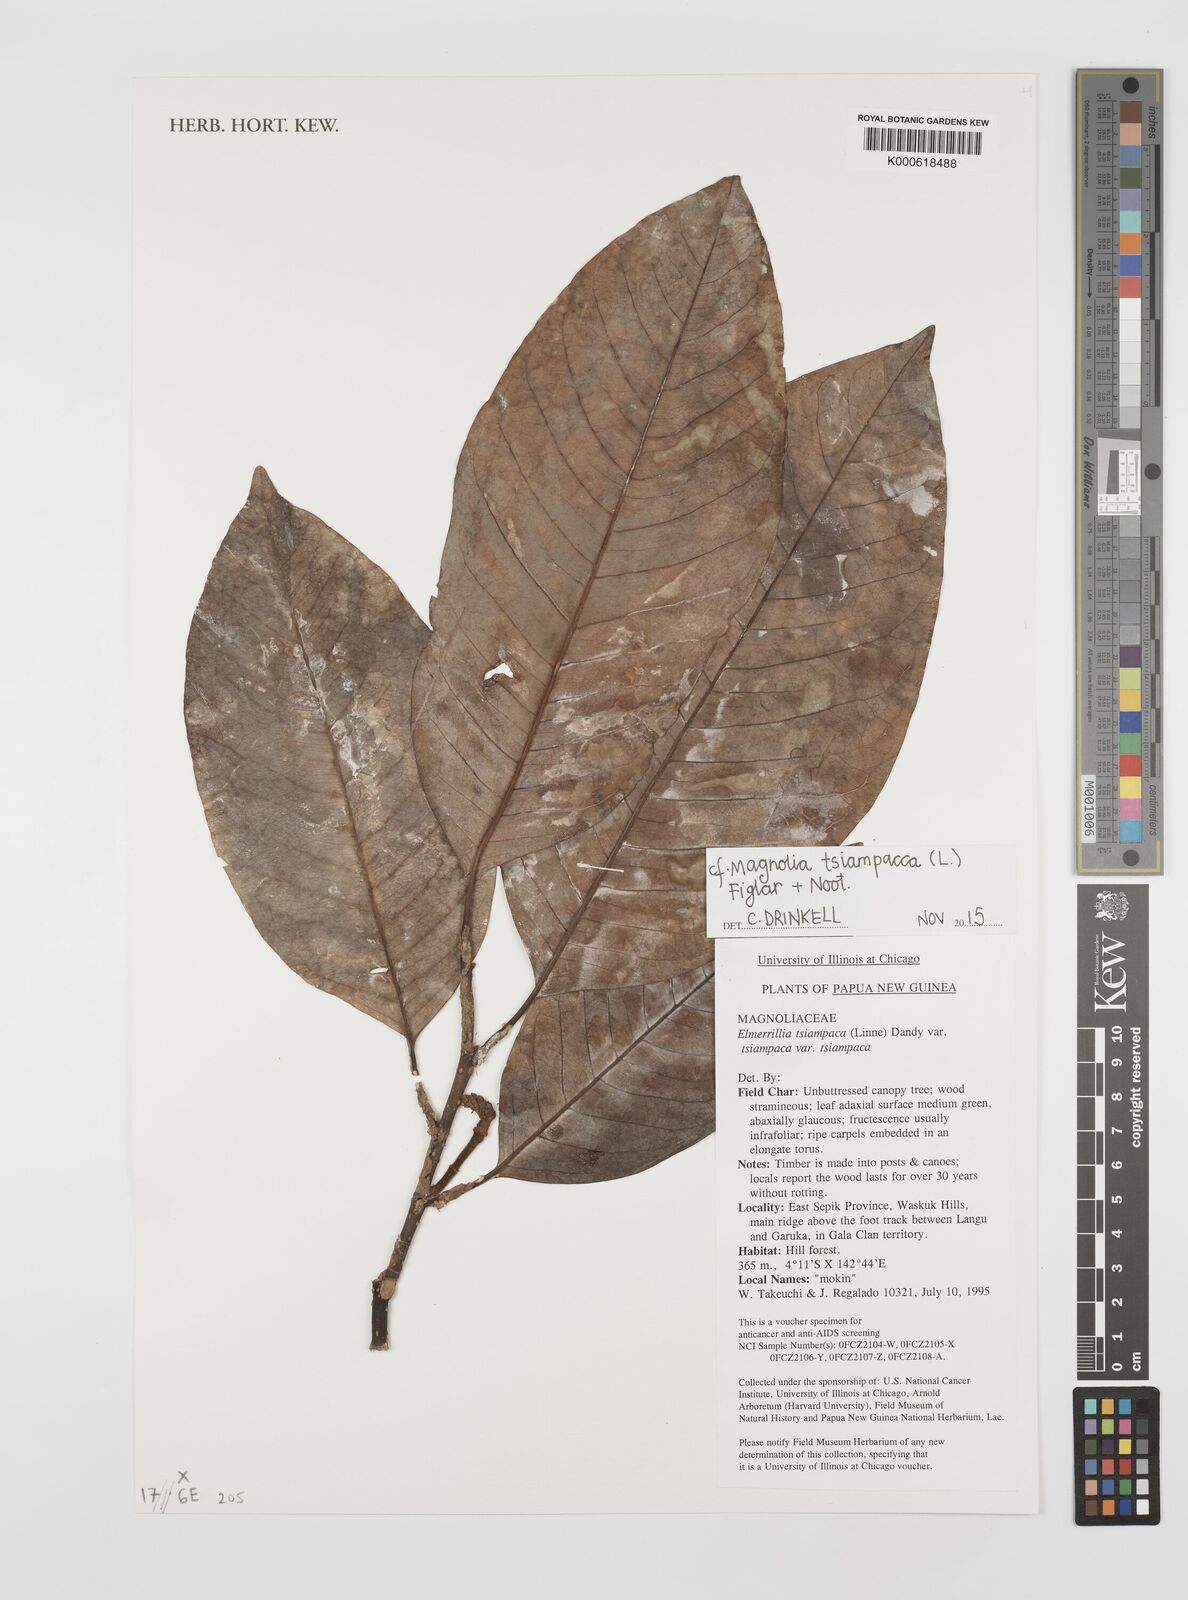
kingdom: Plantae
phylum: Tracheophyta
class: Magnoliopsida
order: Magnoliales
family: Magnoliaceae
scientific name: Magnoliaceae
